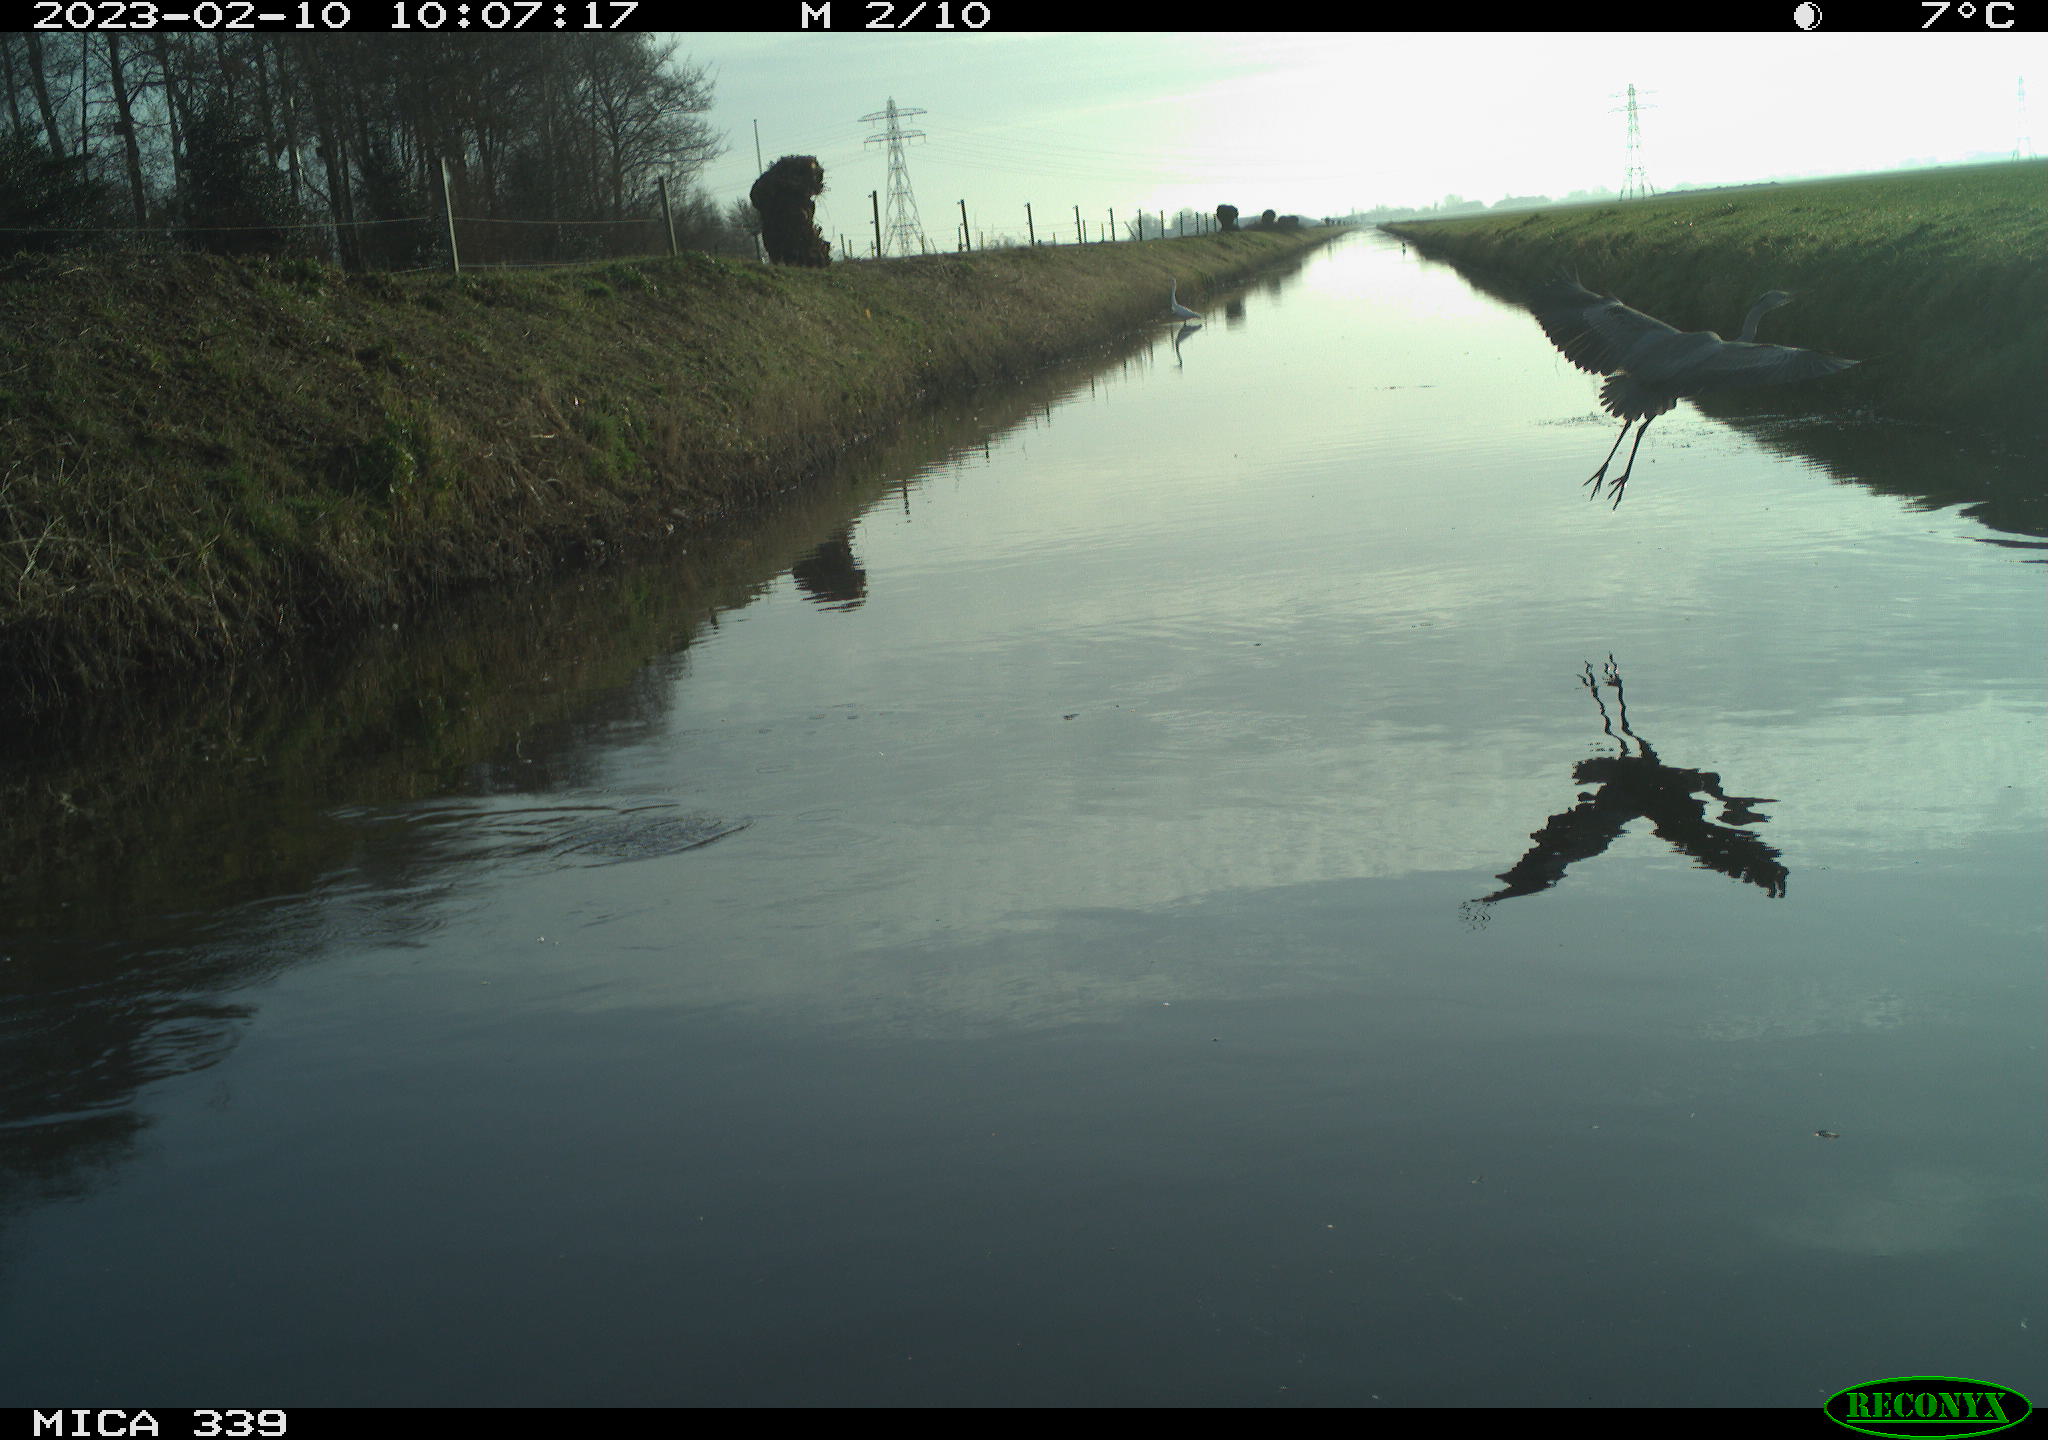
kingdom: Animalia
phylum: Chordata
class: Aves
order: Pelecaniformes
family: Ardeidae
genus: Ardea
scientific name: Ardea cinerea
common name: Grey heron
